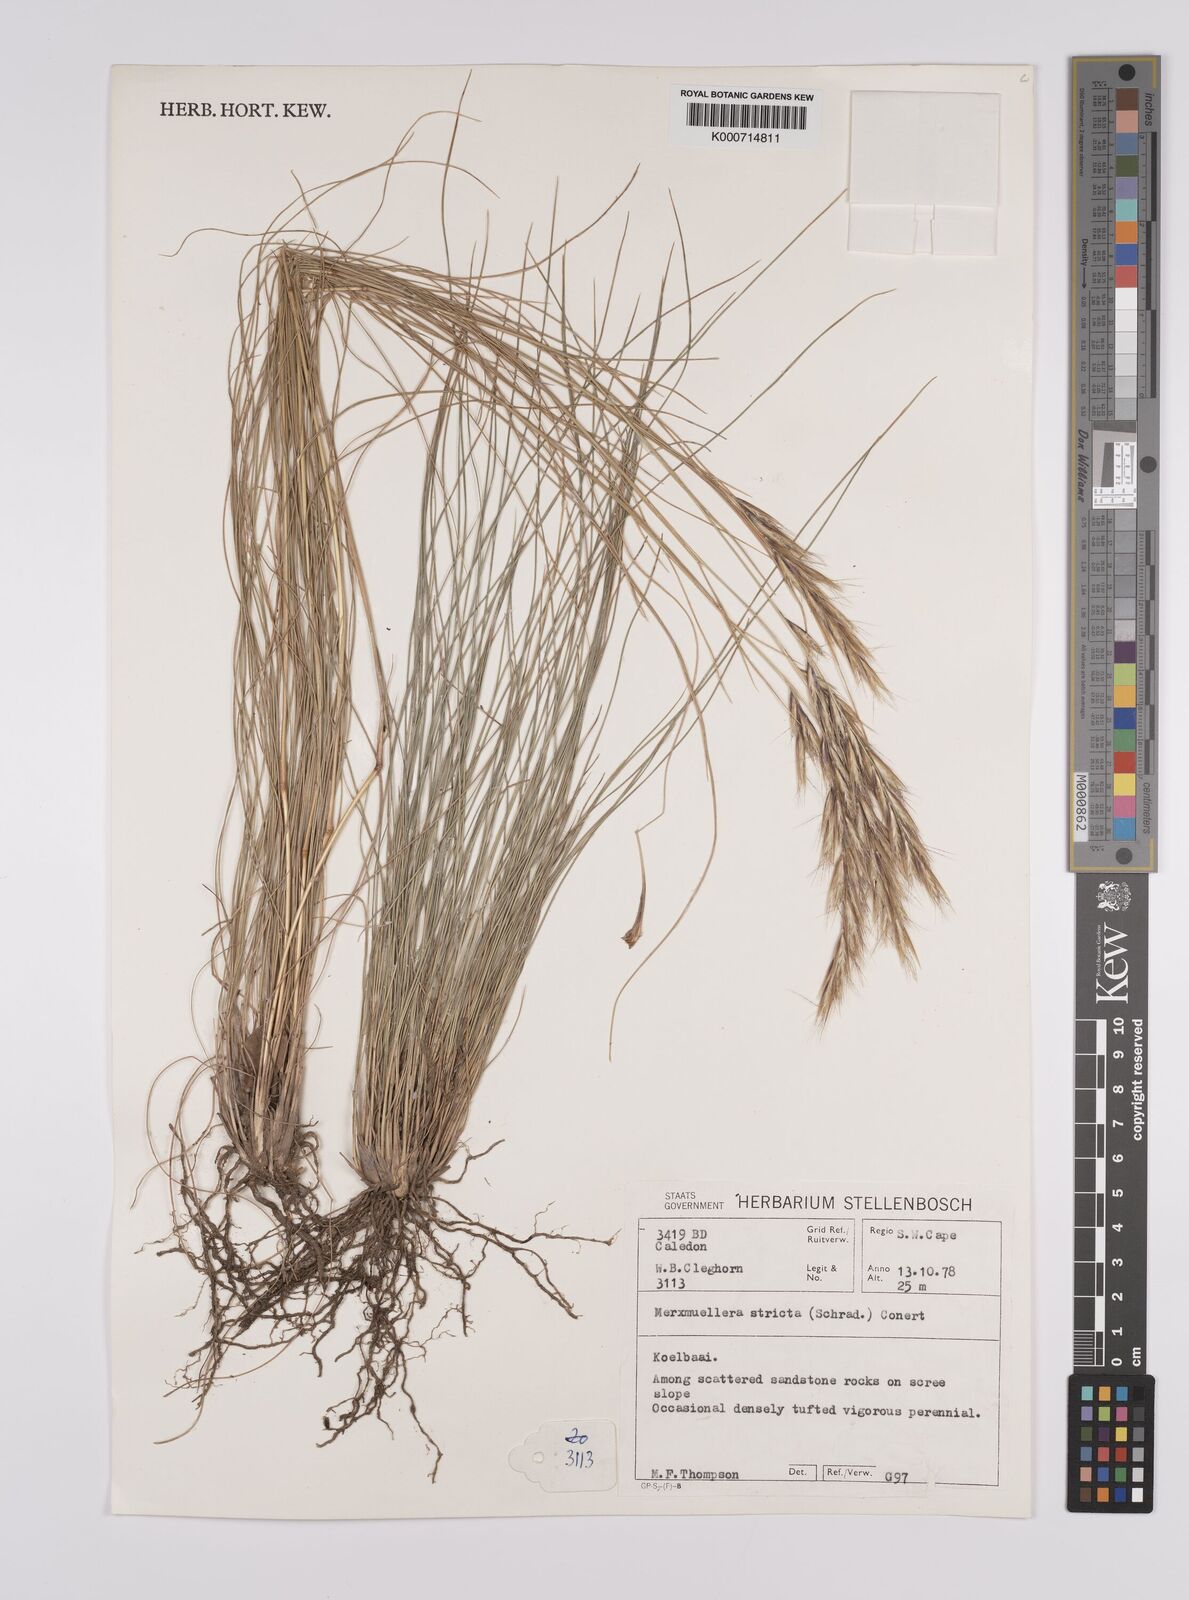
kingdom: Plantae
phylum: Tracheophyta
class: Liliopsida
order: Poales
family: Poaceae
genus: Rytidosperma
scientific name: Rytidosperma
